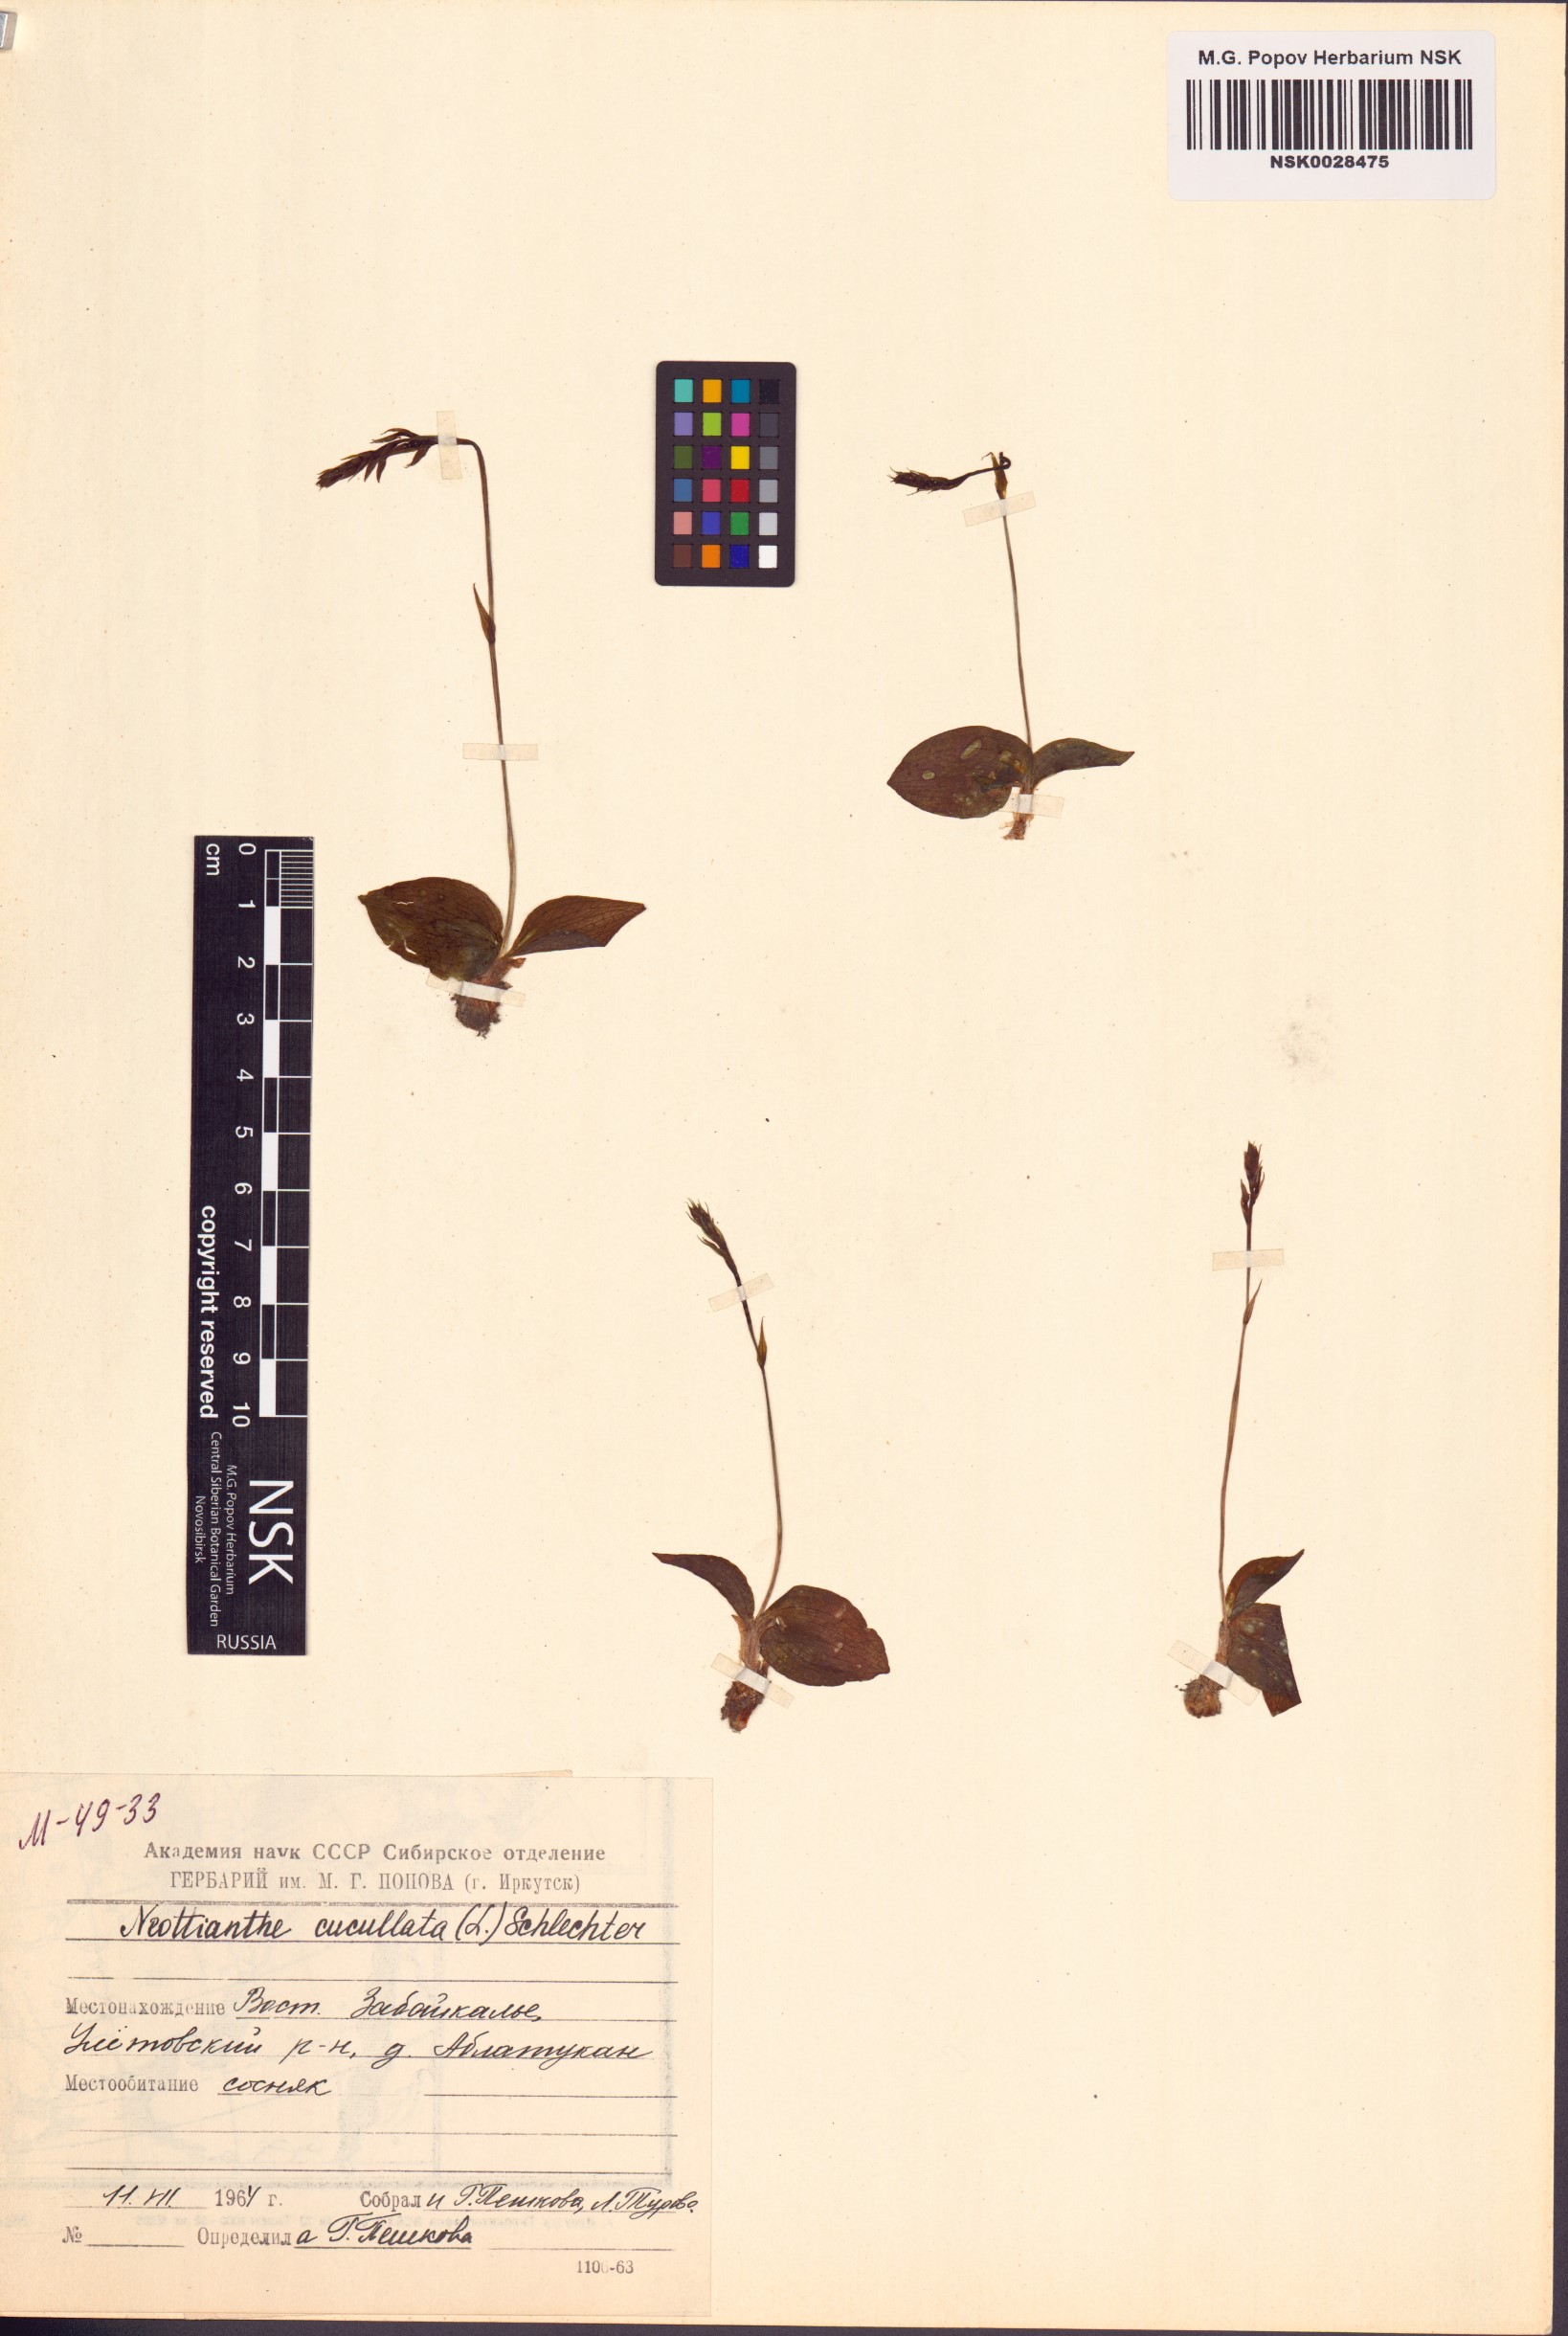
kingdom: Plantae
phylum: Tracheophyta
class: Liliopsida
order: Asparagales
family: Orchidaceae
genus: Hemipilia
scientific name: Hemipilia cucullata
